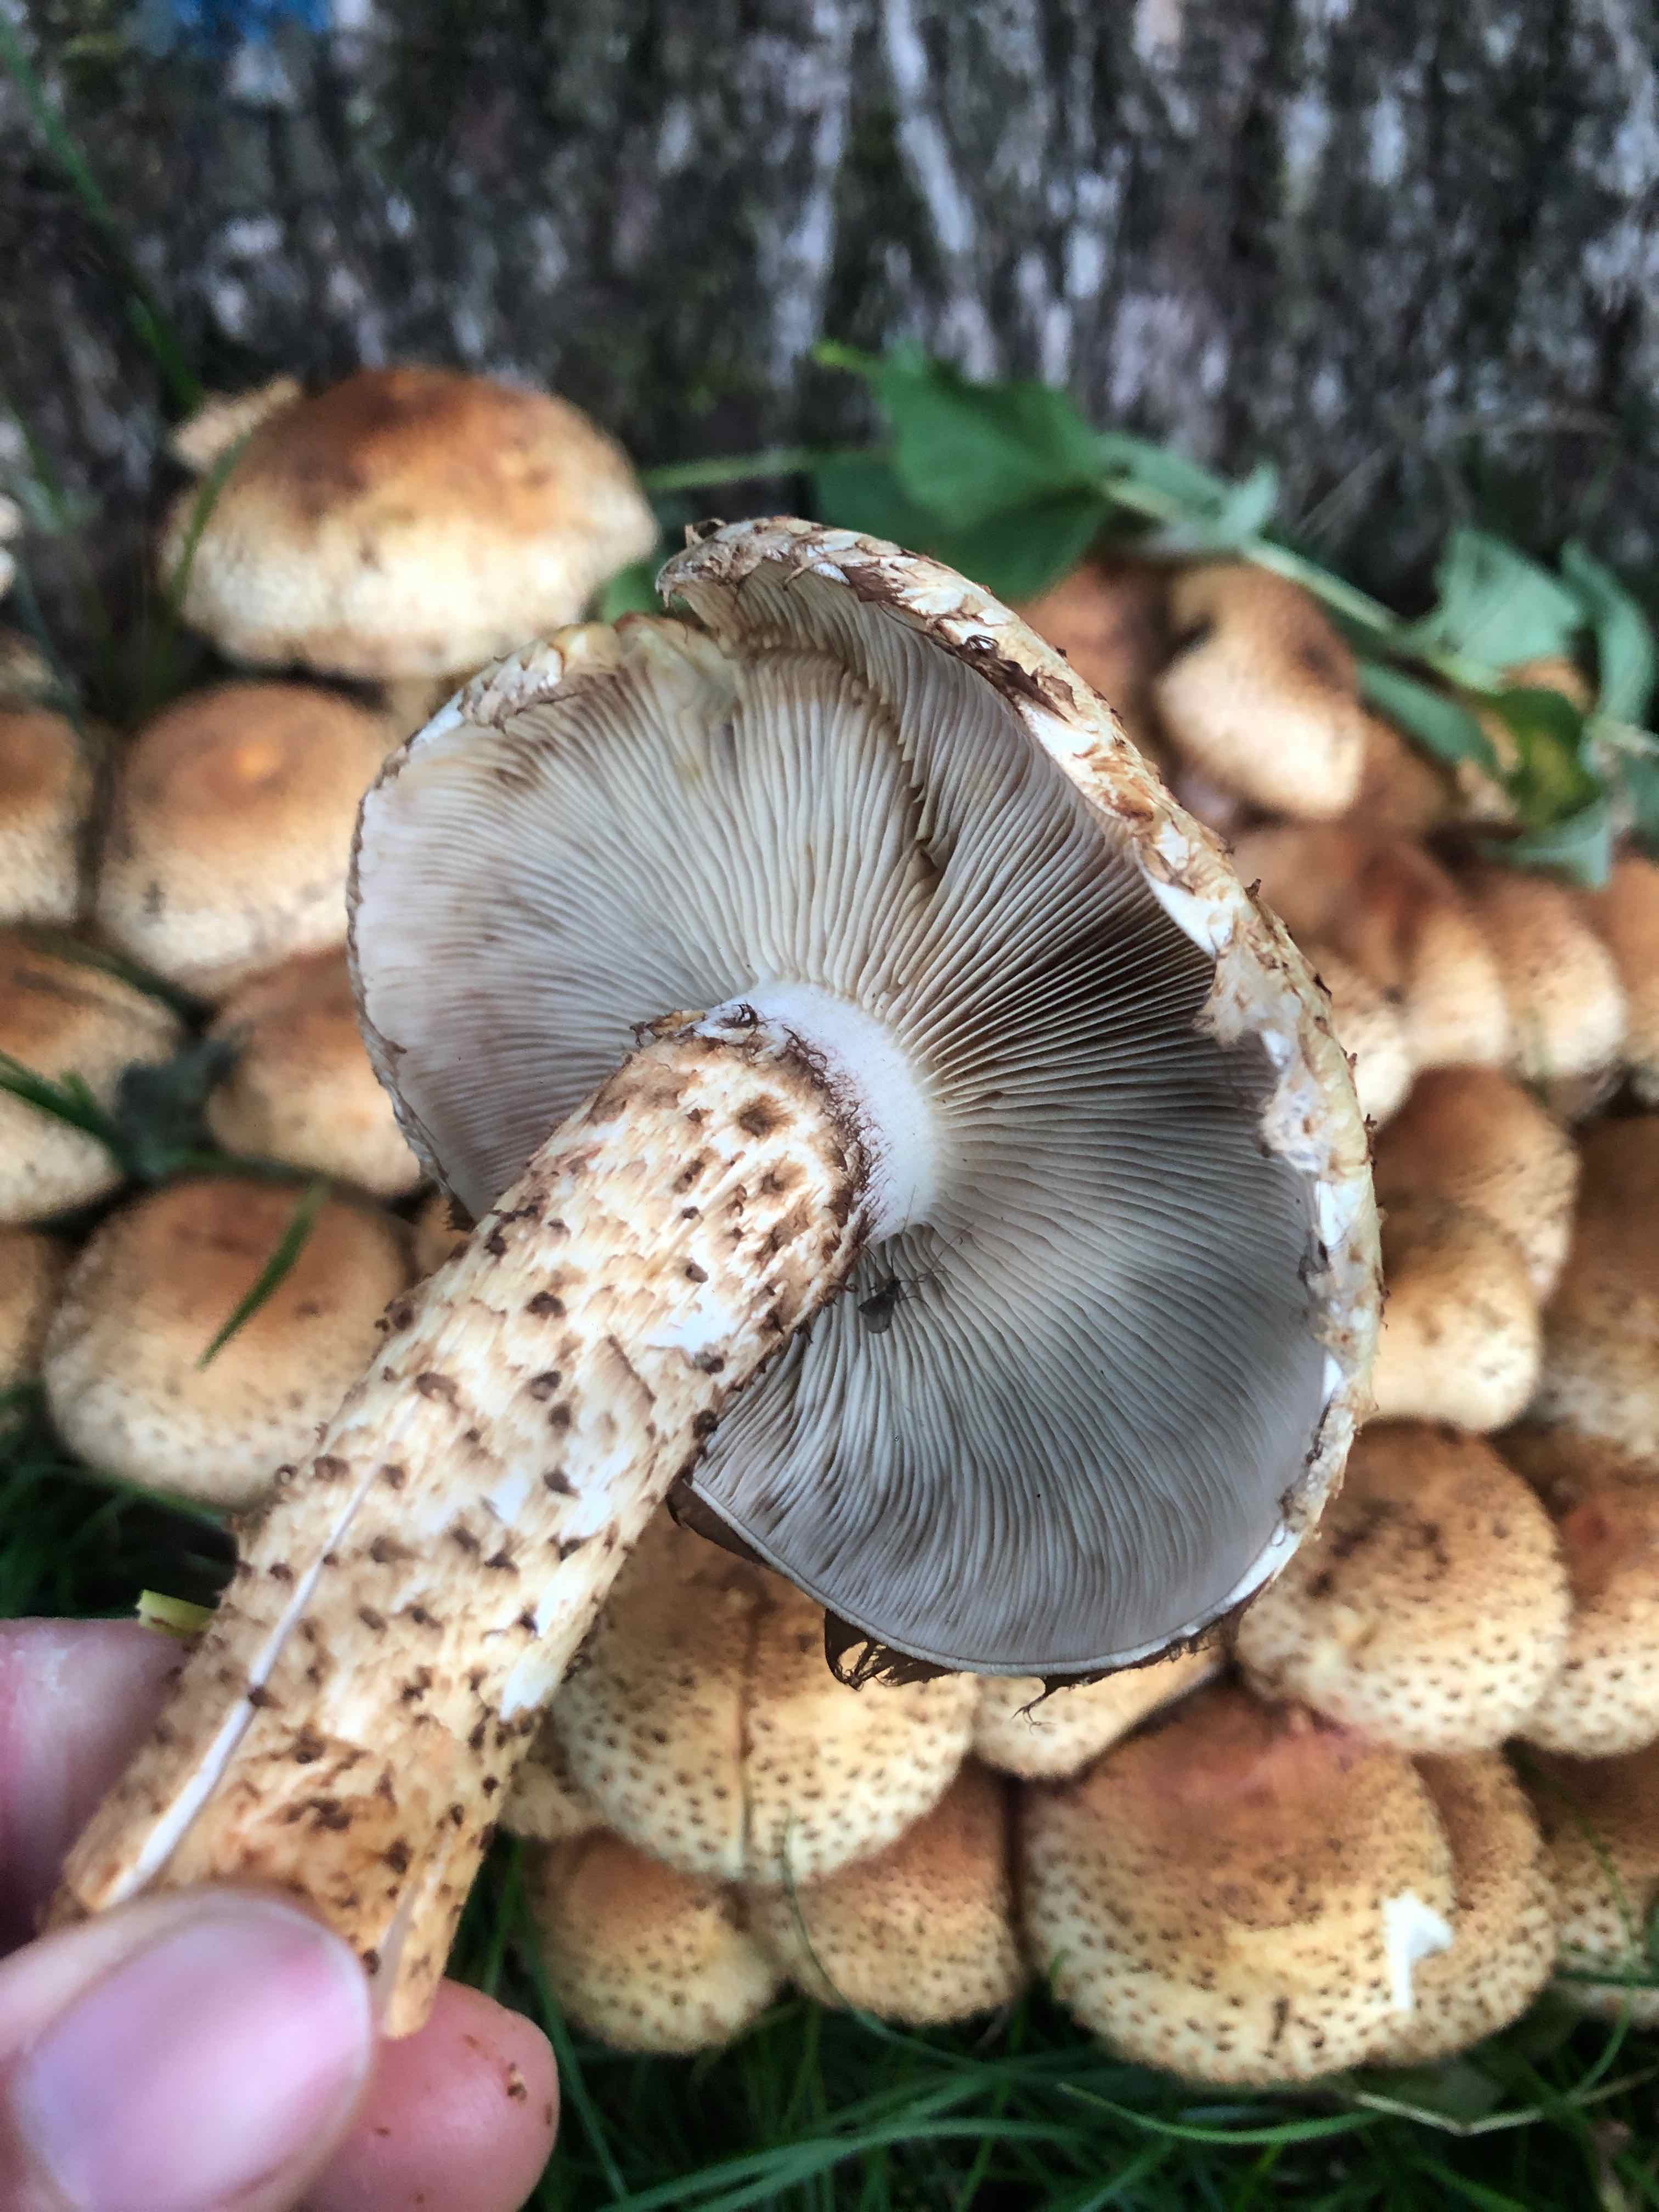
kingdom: Fungi
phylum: Basidiomycota
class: Agaricomycetes
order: Agaricales
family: Strophariaceae
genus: Pholiota
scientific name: Pholiota squarrosa
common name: krumskællet skælhat
